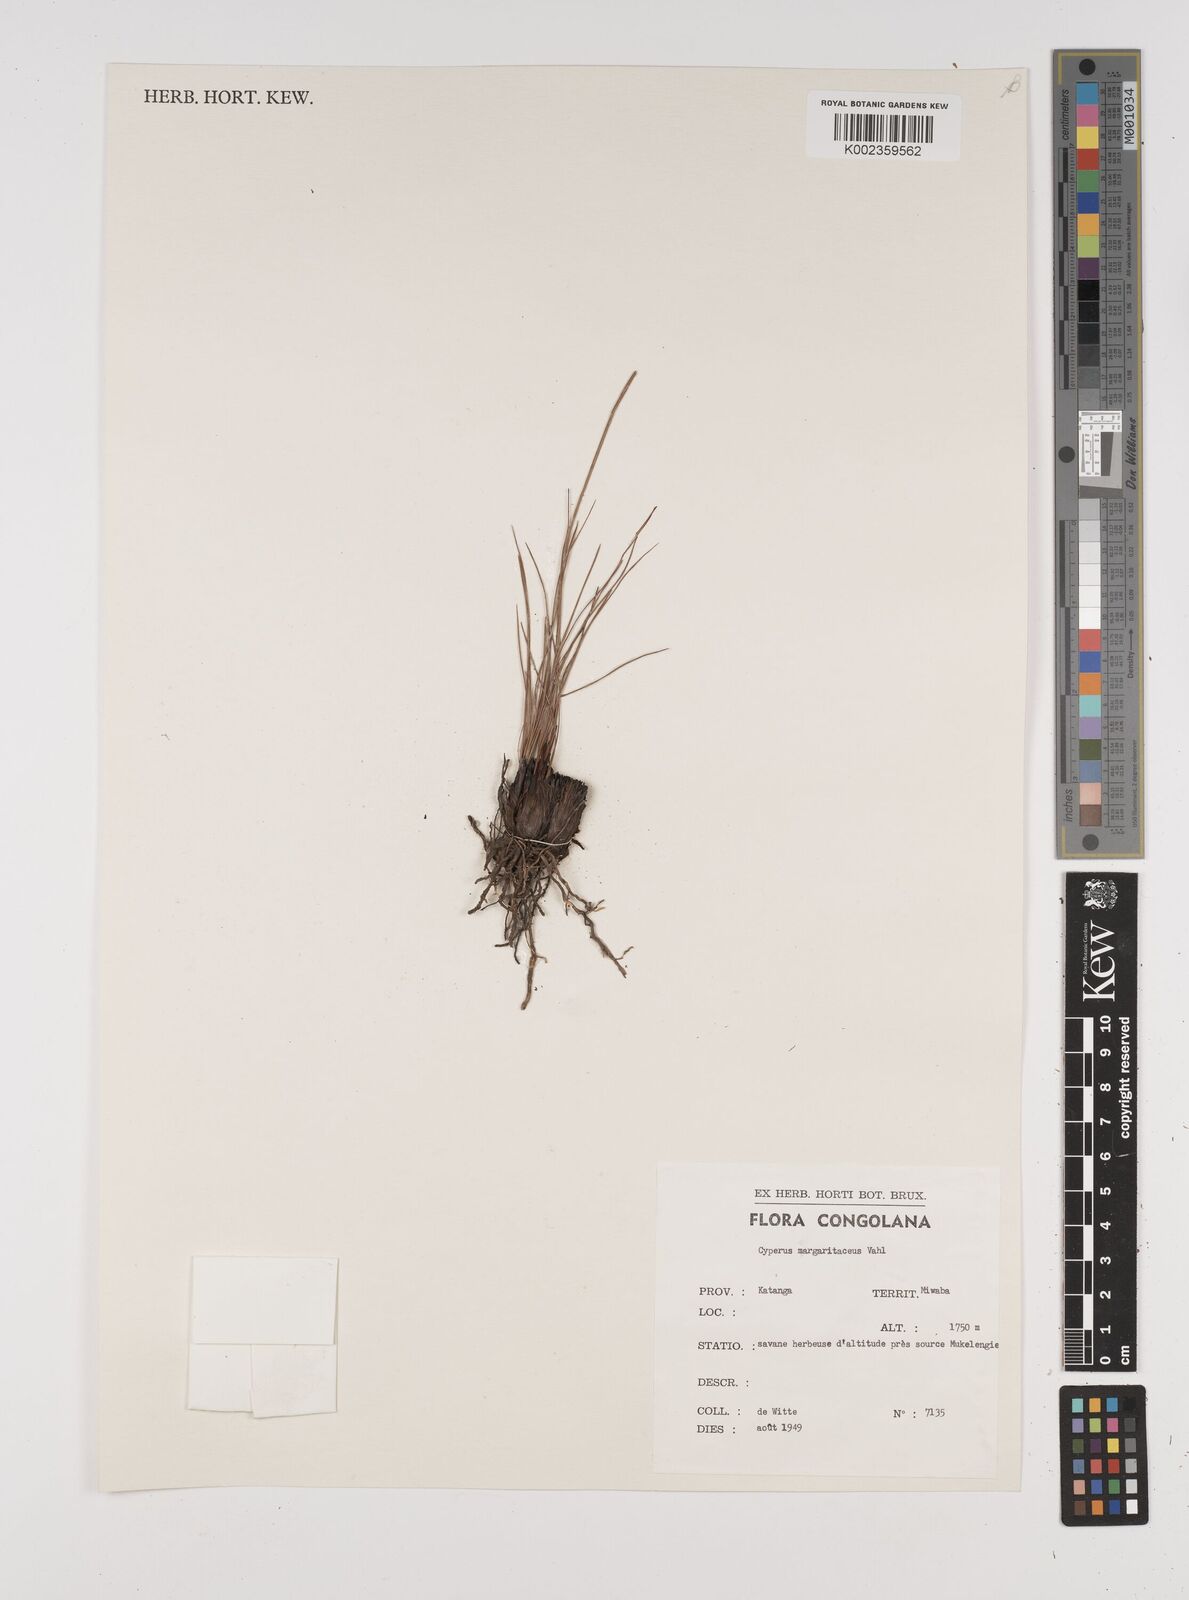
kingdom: Plantae
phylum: Tracheophyta
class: Liliopsida
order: Poales
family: Cyperaceae
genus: Cyperus
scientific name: Cyperus margaritaceus
